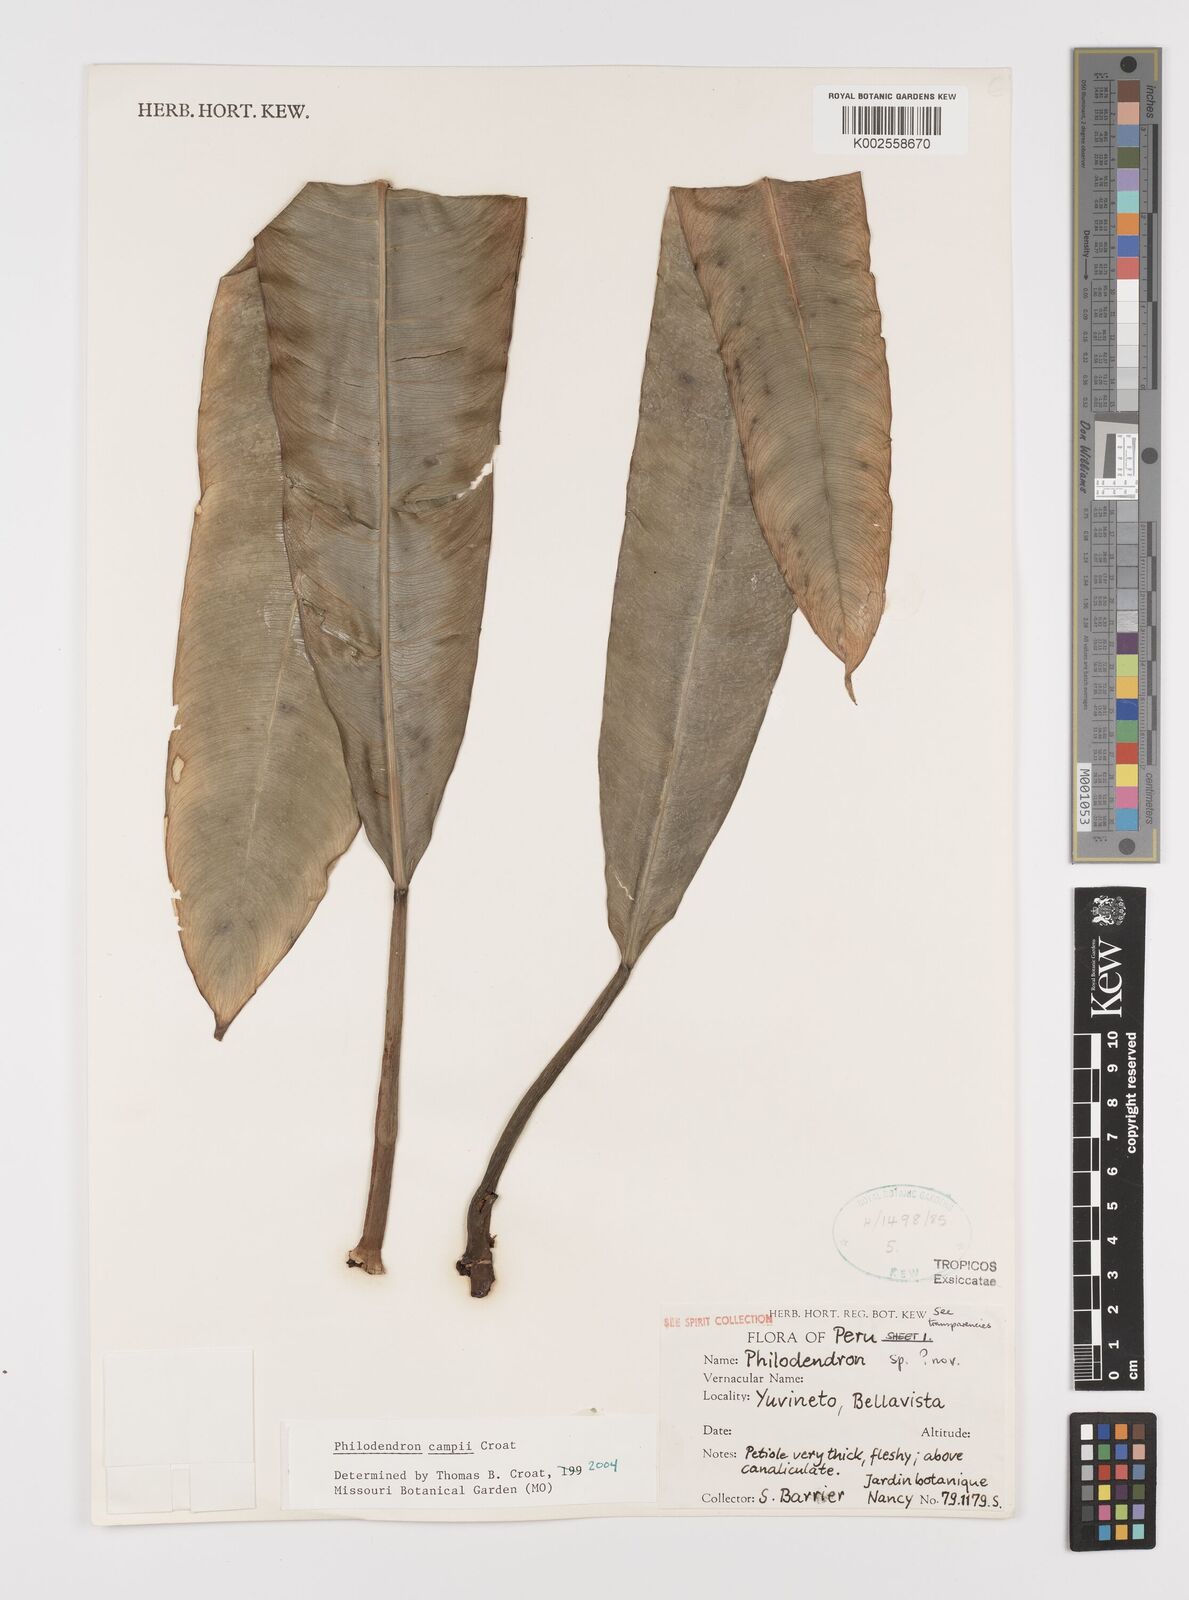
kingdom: Plantae
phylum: Tracheophyta
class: Liliopsida
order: Alismatales
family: Araceae
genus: Philodendron
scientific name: Philodendron campii
